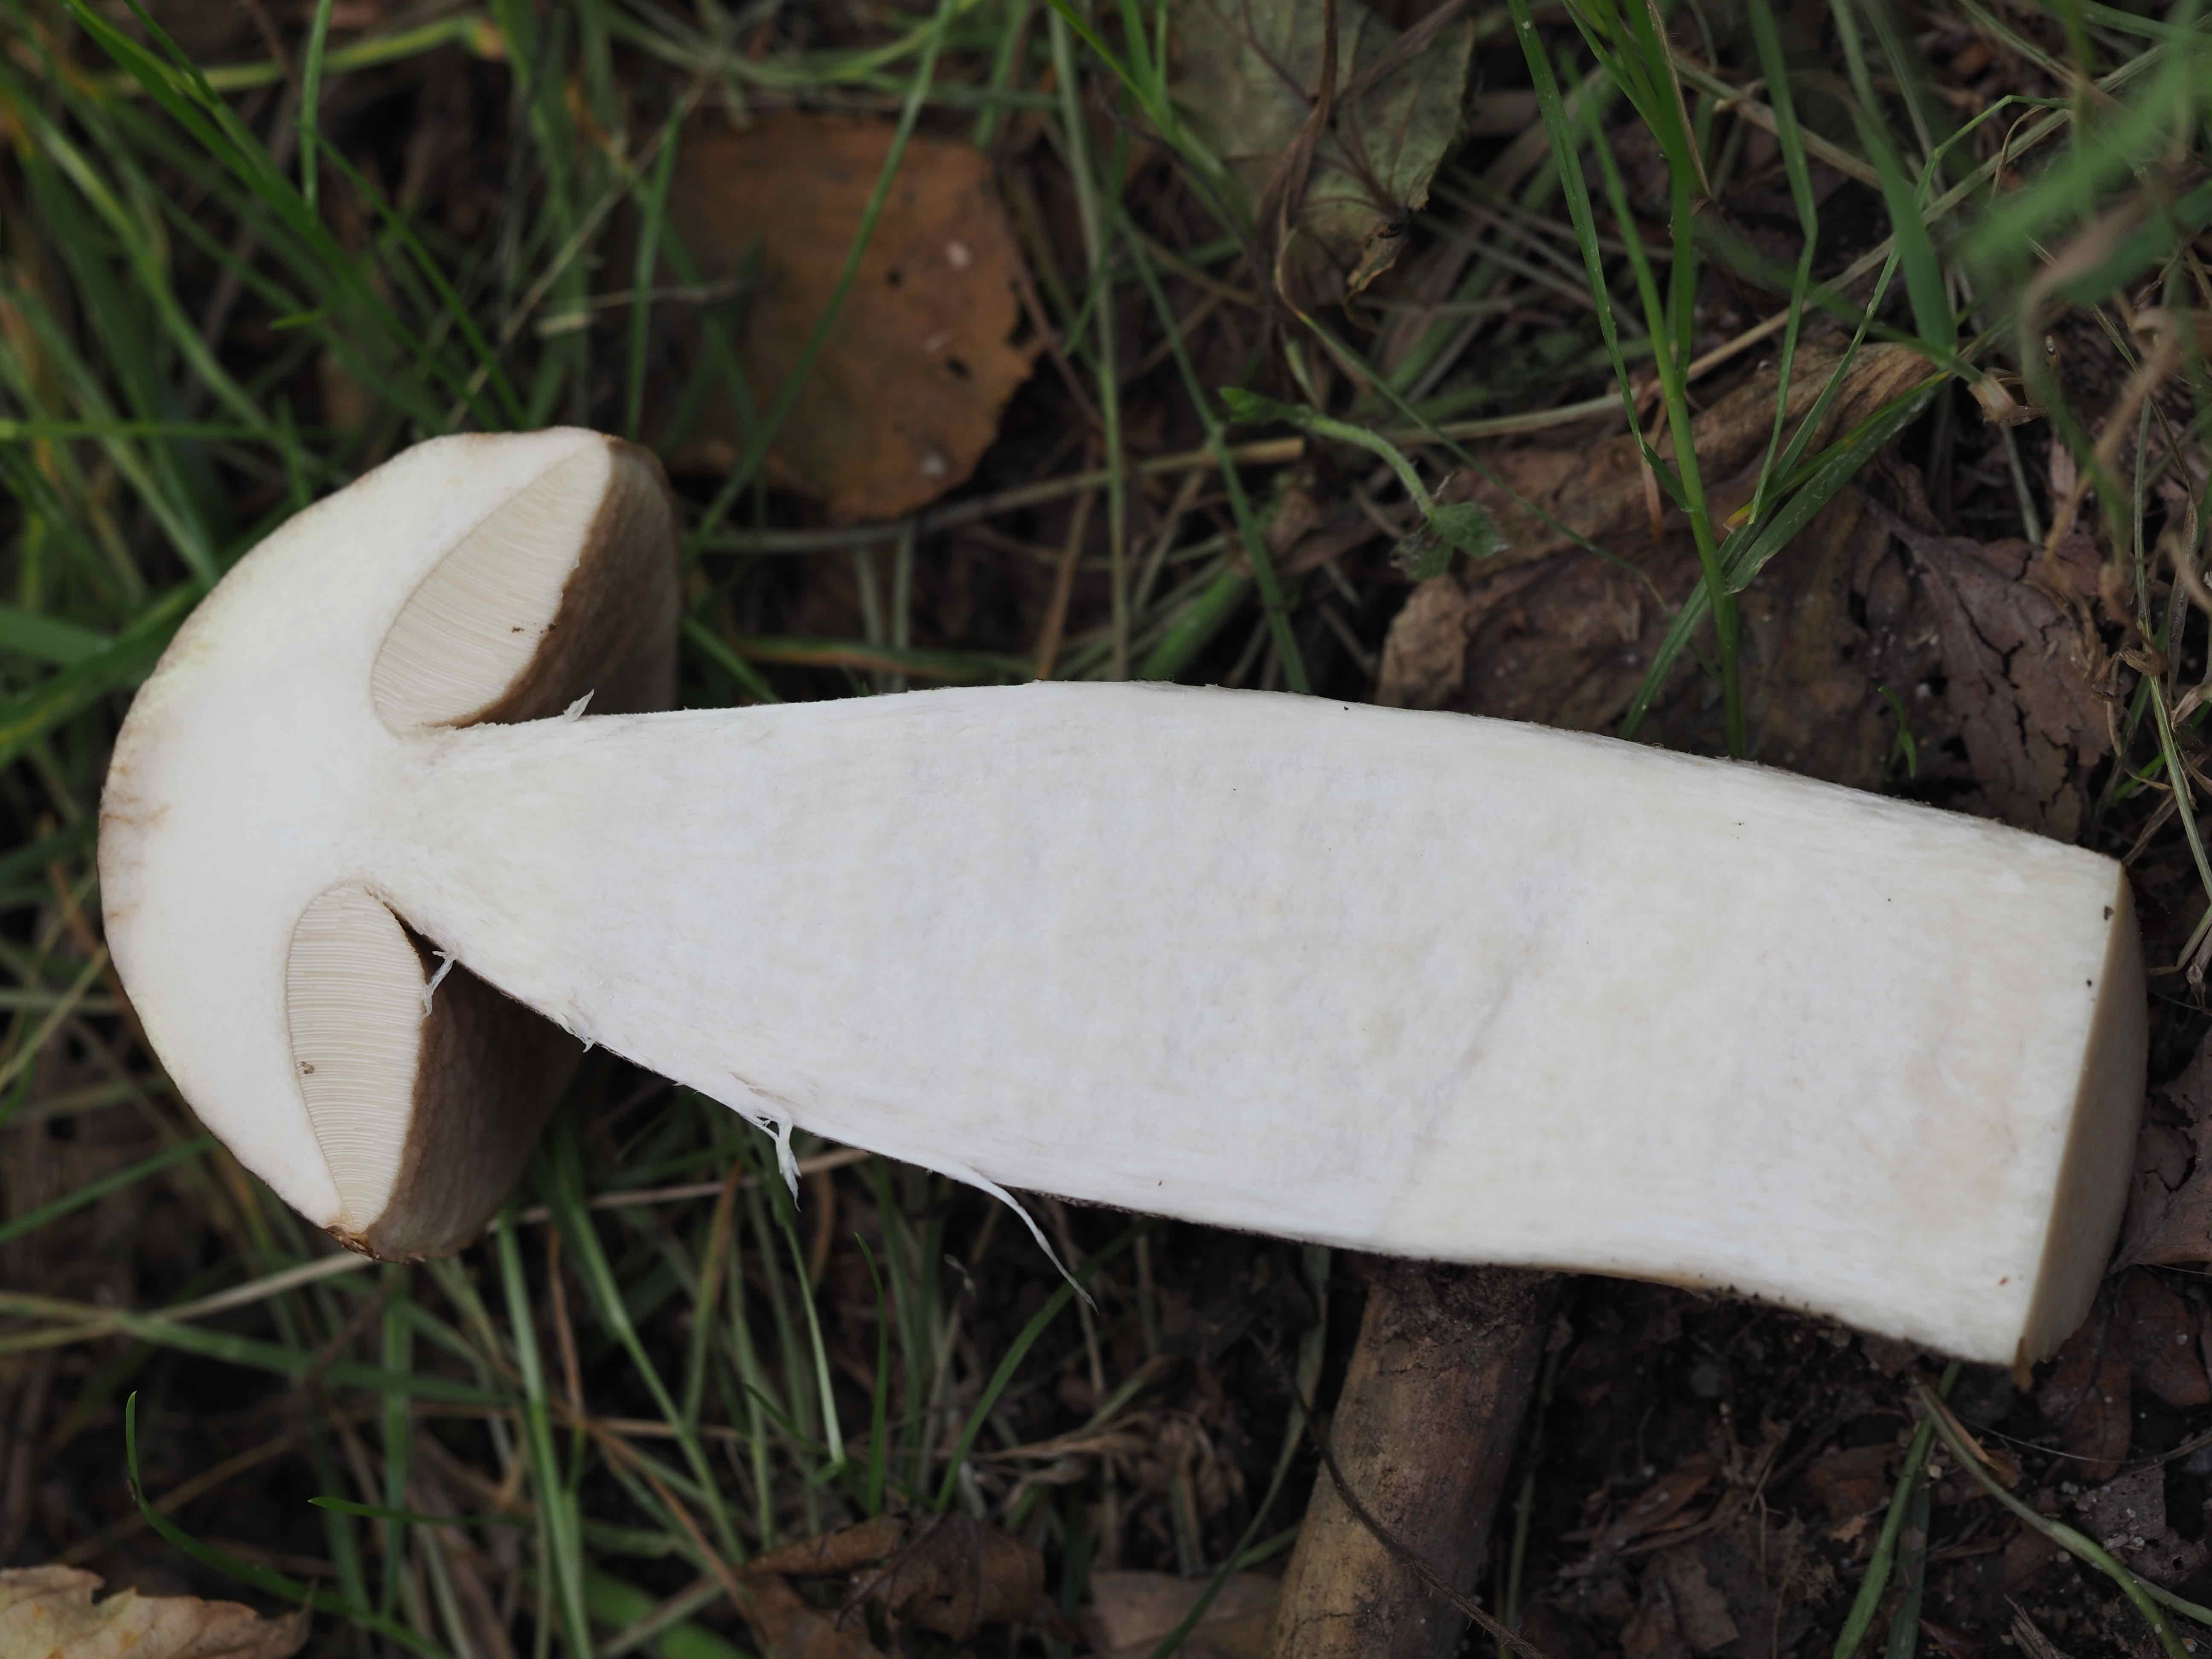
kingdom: Fungi
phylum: Basidiomycota
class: Agaricomycetes
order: Boletales
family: Boletaceae
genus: Leccinum
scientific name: Leccinum scabrum
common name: brun skælrørhat
